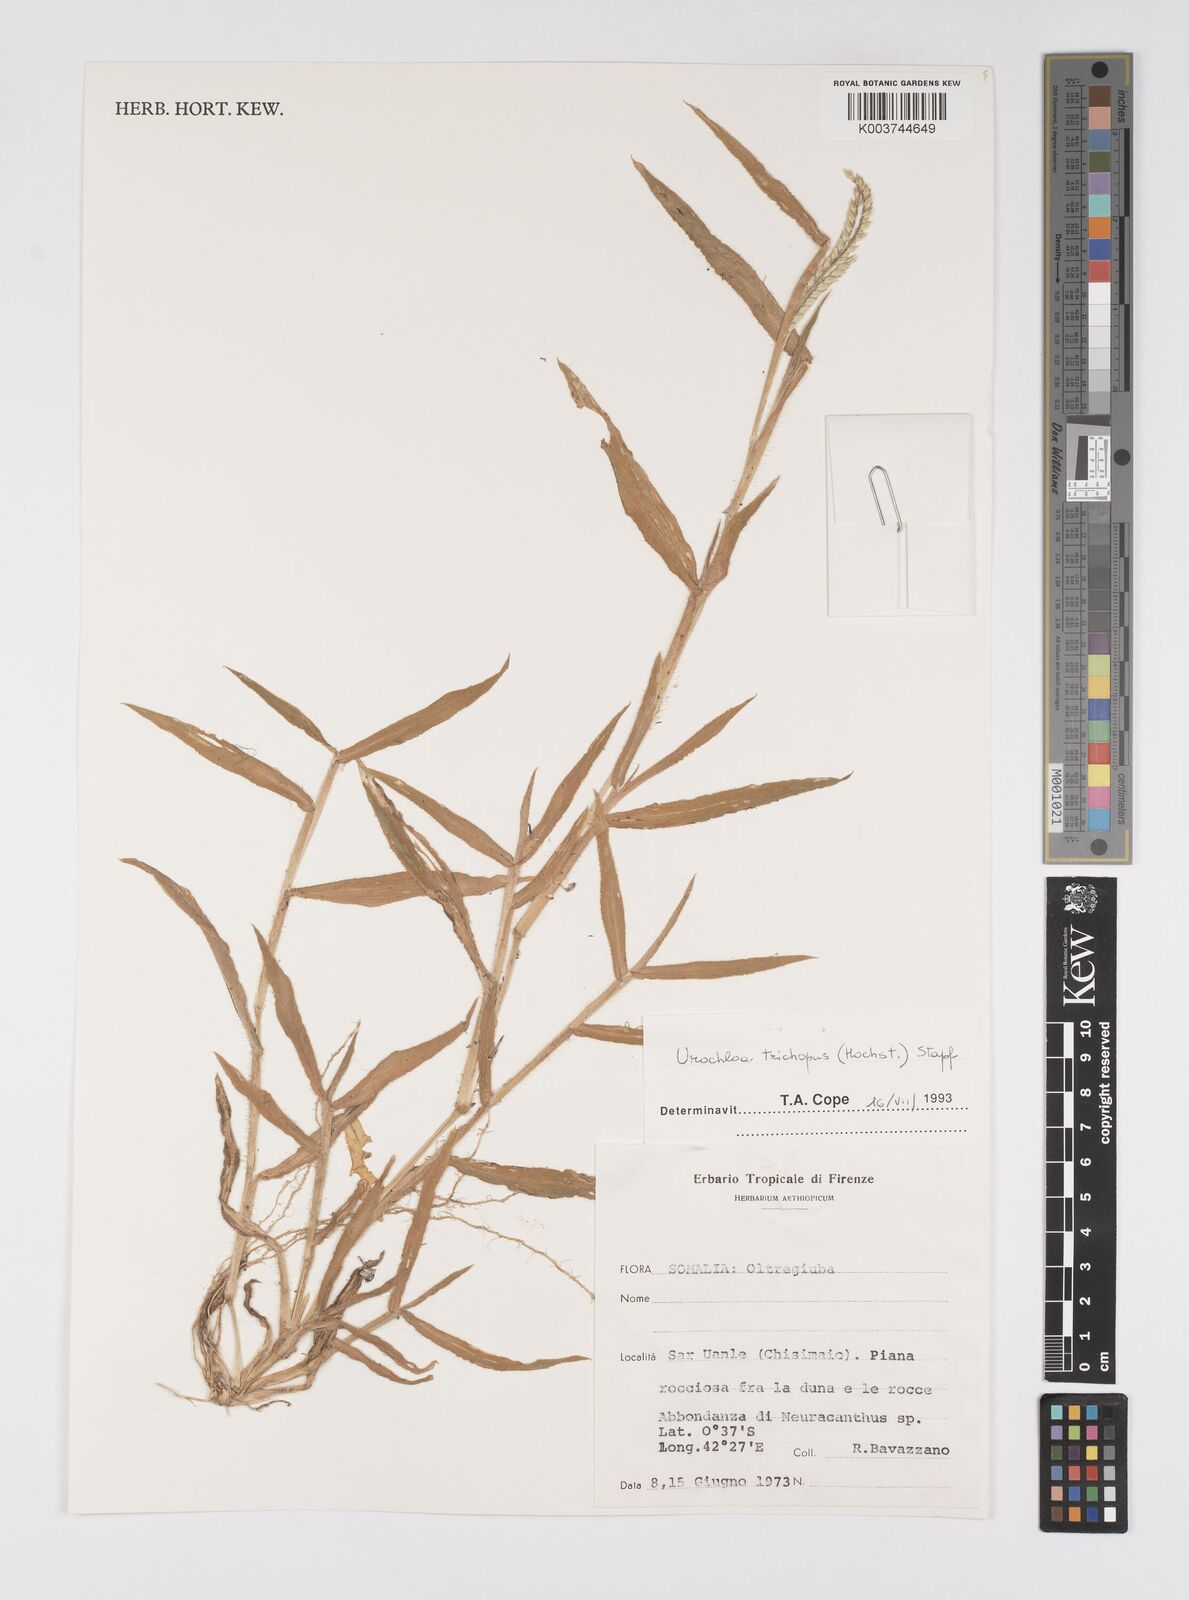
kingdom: Plantae
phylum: Tracheophyta
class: Liliopsida
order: Poales
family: Poaceae
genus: Urochloa
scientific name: Urochloa trichopus
